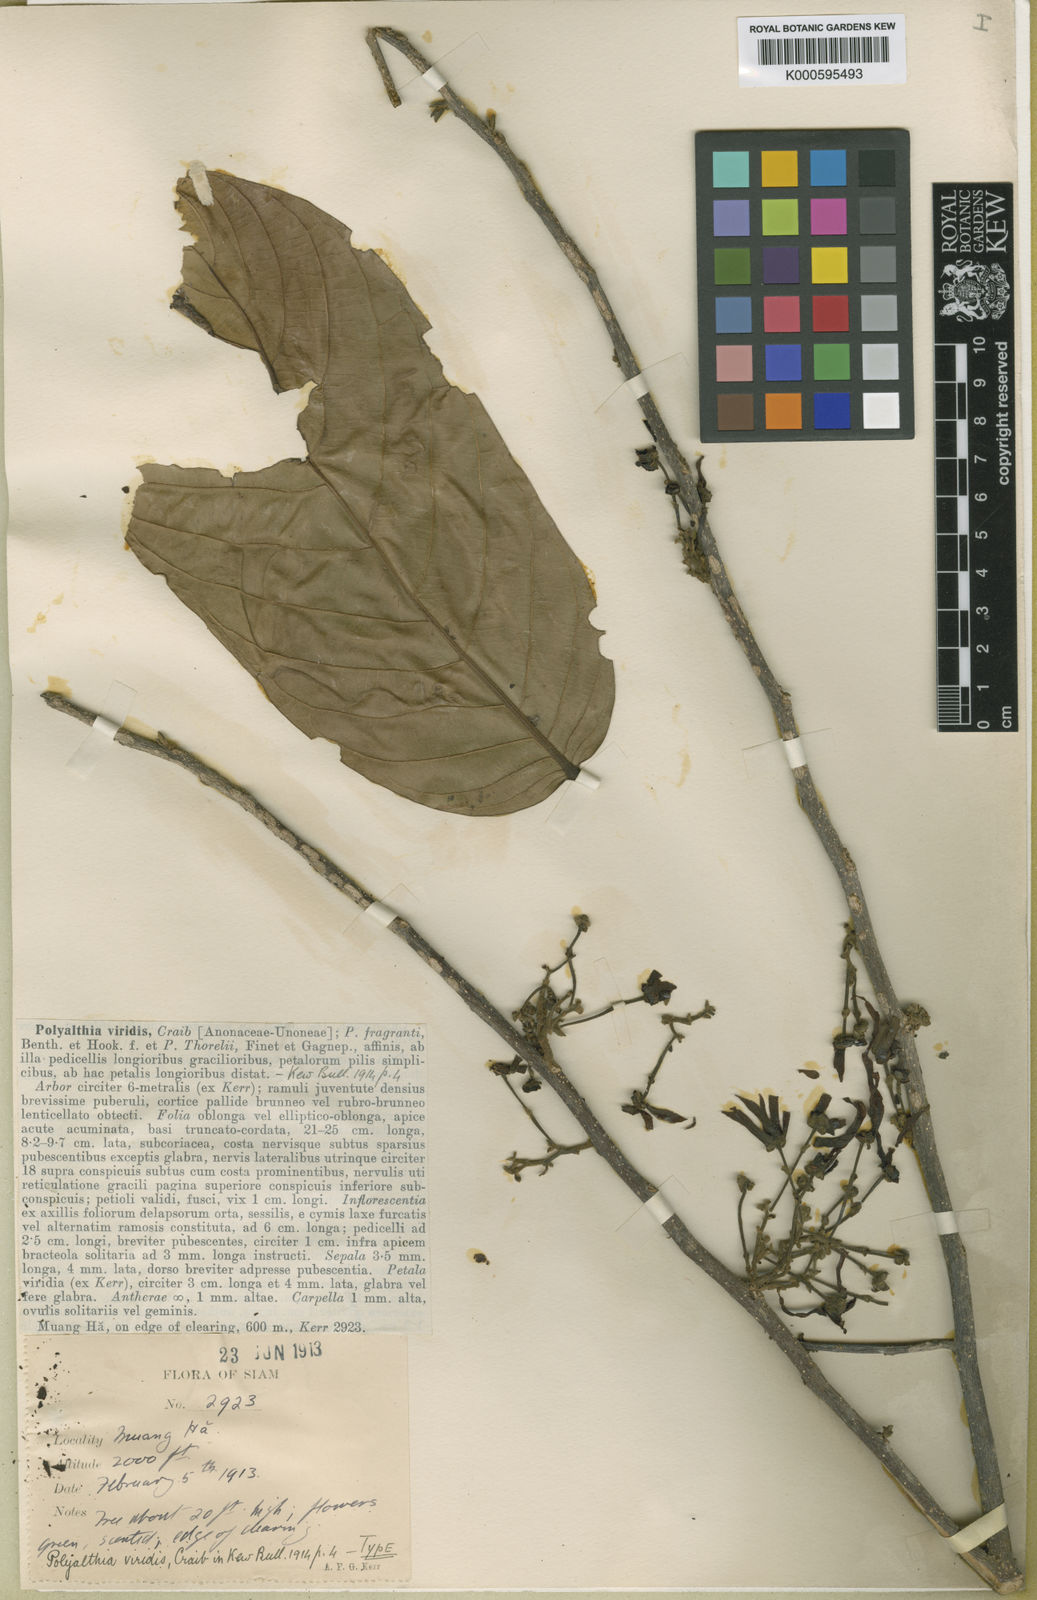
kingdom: Plantae
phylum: Tracheophyta
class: Magnoliopsida
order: Magnoliales
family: Annonaceae
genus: Polyalthia
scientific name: Polyalthia viridis
